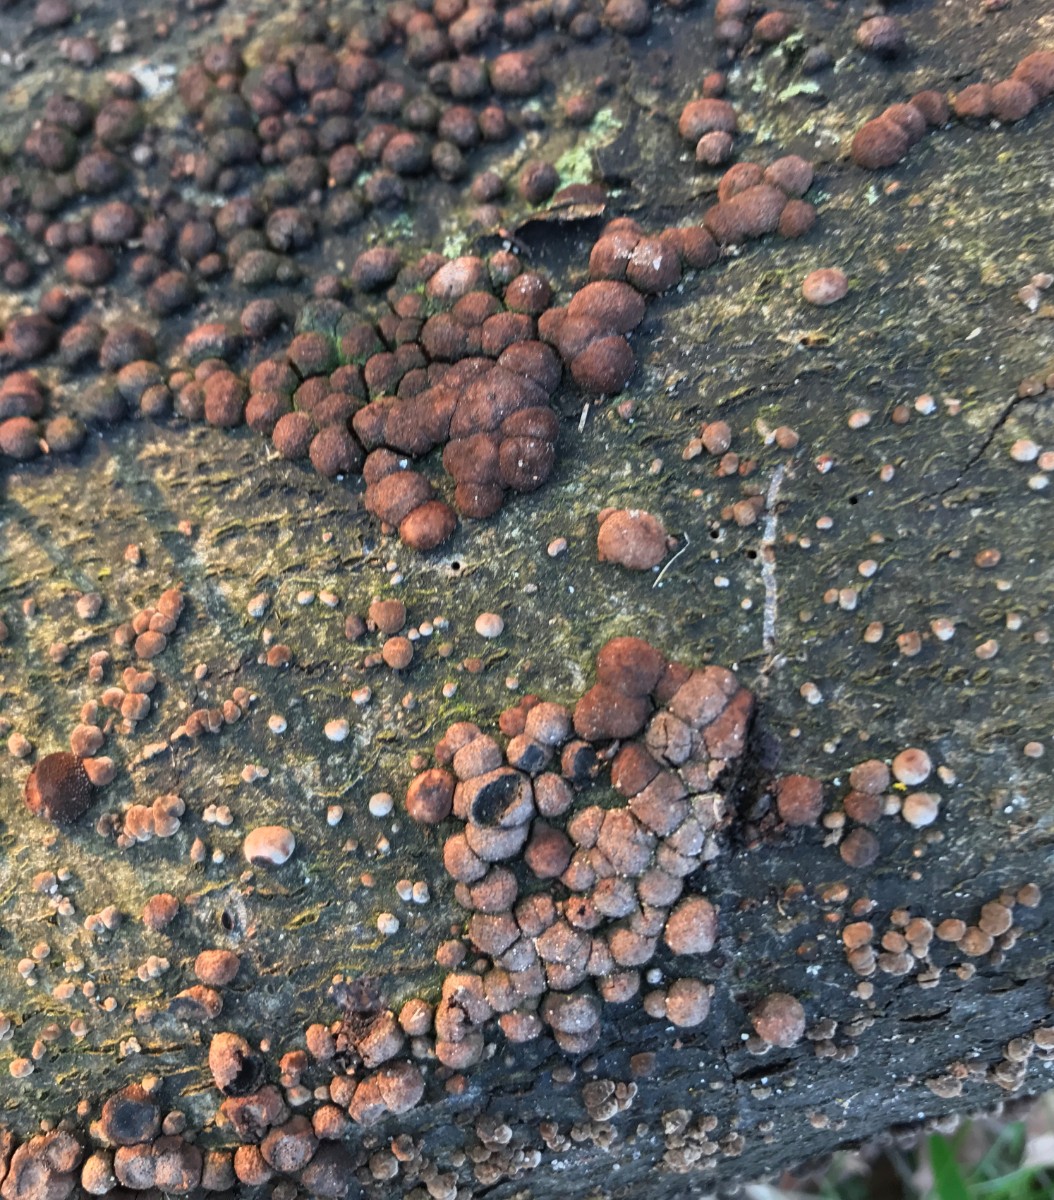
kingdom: Fungi
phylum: Ascomycota
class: Sordariomycetes
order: Xylariales
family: Hypoxylaceae
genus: Hypoxylon
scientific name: Hypoxylon fragiforme
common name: kuljordbær
